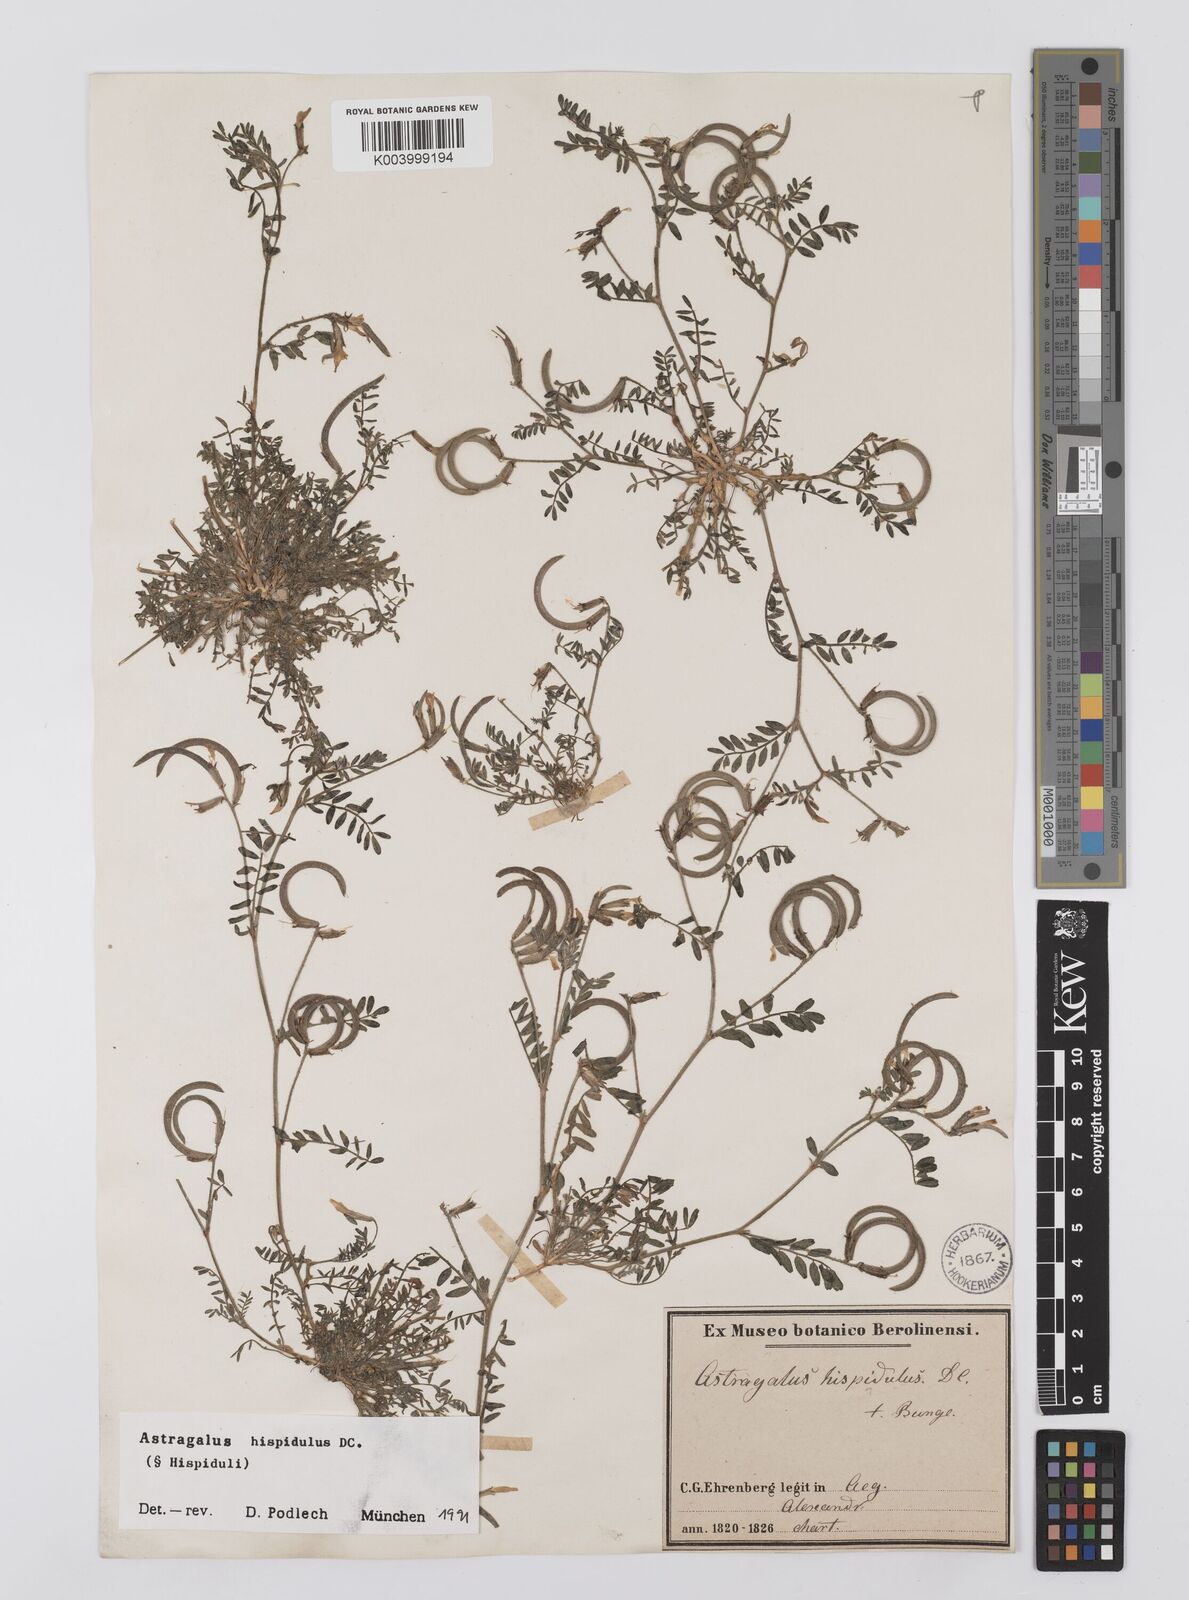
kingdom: Plantae
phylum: Tracheophyta
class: Magnoliopsida
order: Fabales
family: Fabaceae
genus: Astragalus
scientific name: Astragalus hispidulus
